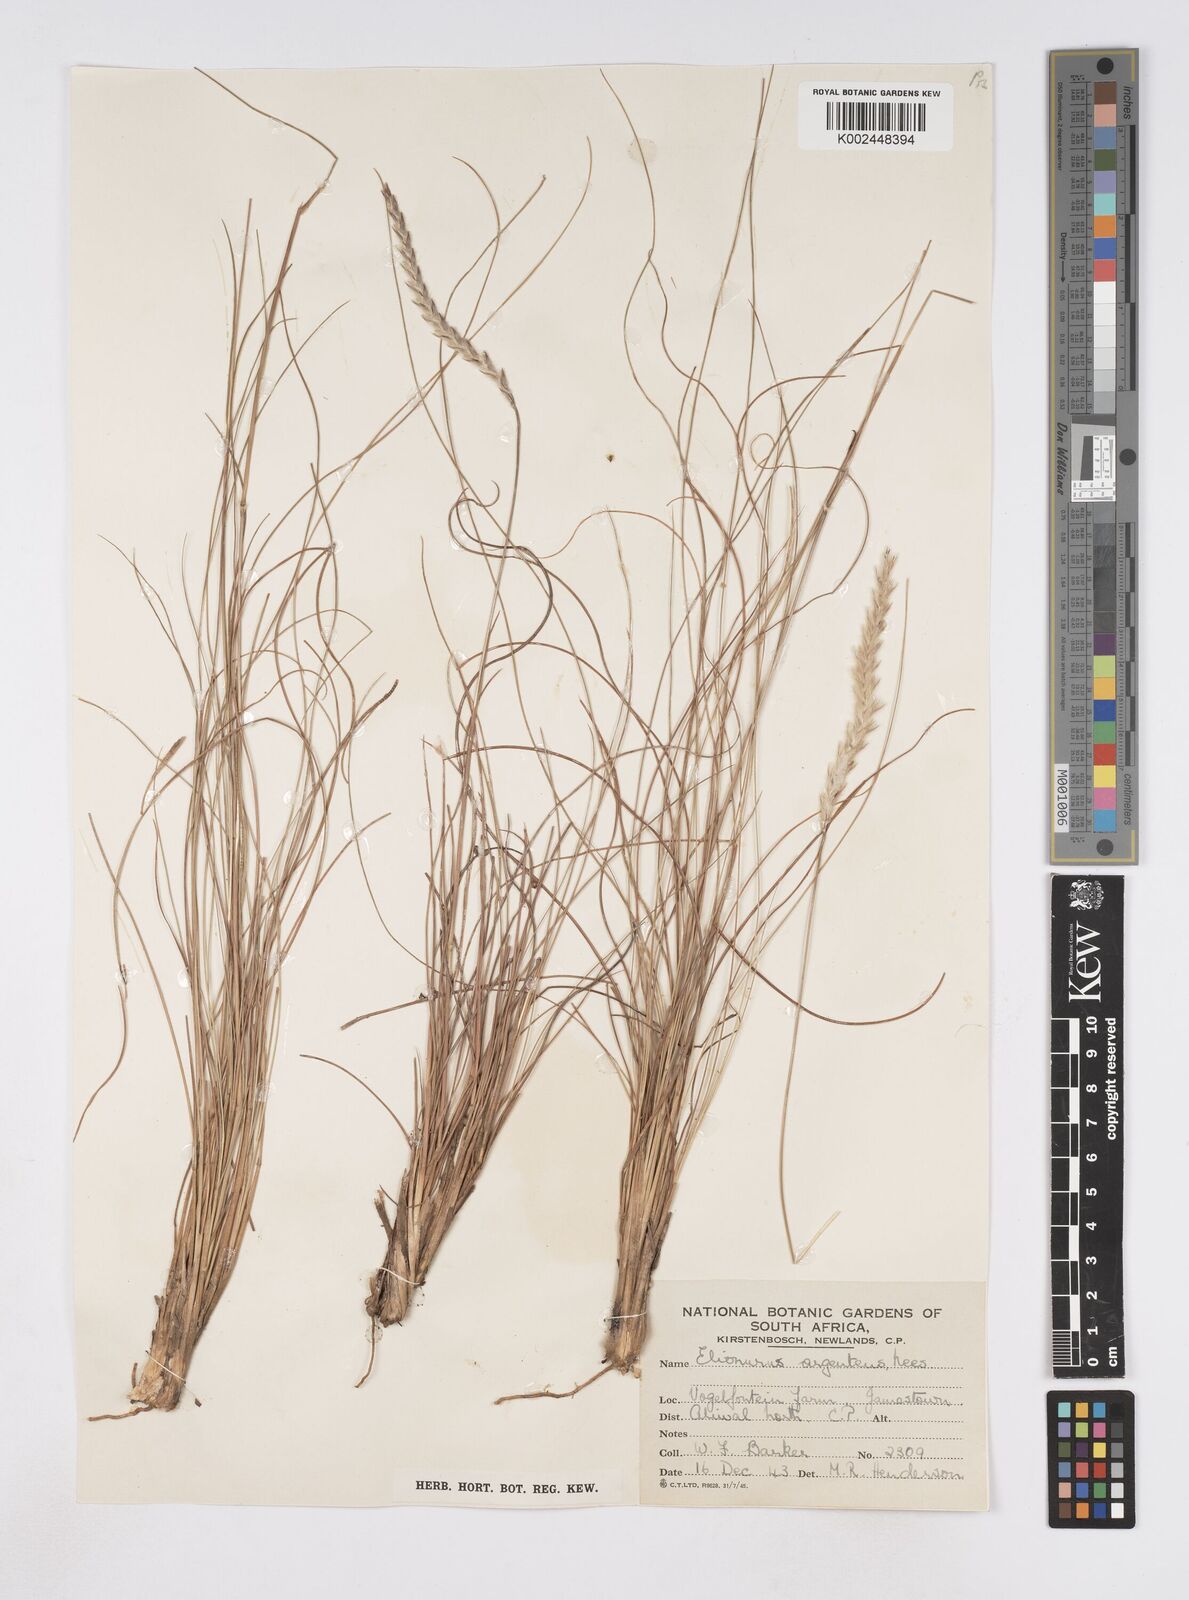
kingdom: Plantae
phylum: Tracheophyta
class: Liliopsida
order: Poales
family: Poaceae
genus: Elionurus
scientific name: Elionurus muticus
